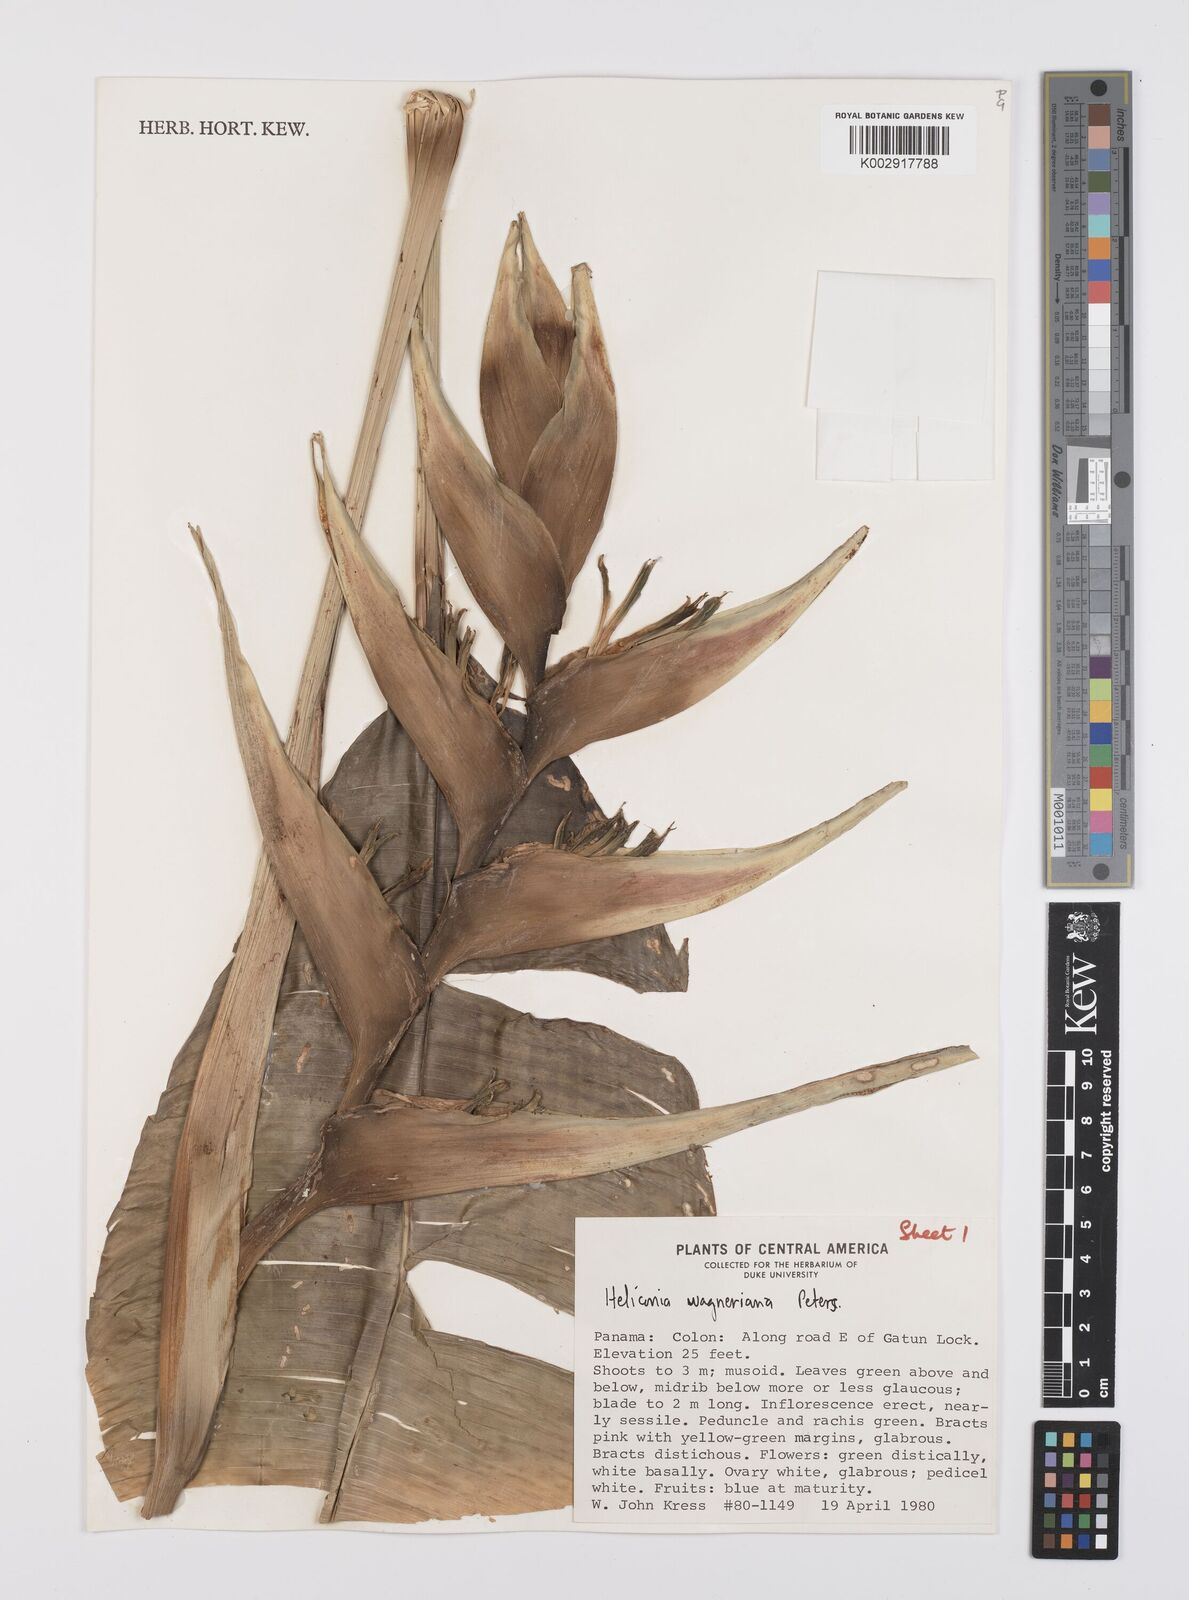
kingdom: Plantae
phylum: Tracheophyta
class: Liliopsida
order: Zingiberales
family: Heliconiaceae
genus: Heliconia
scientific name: Heliconia wagneriana
